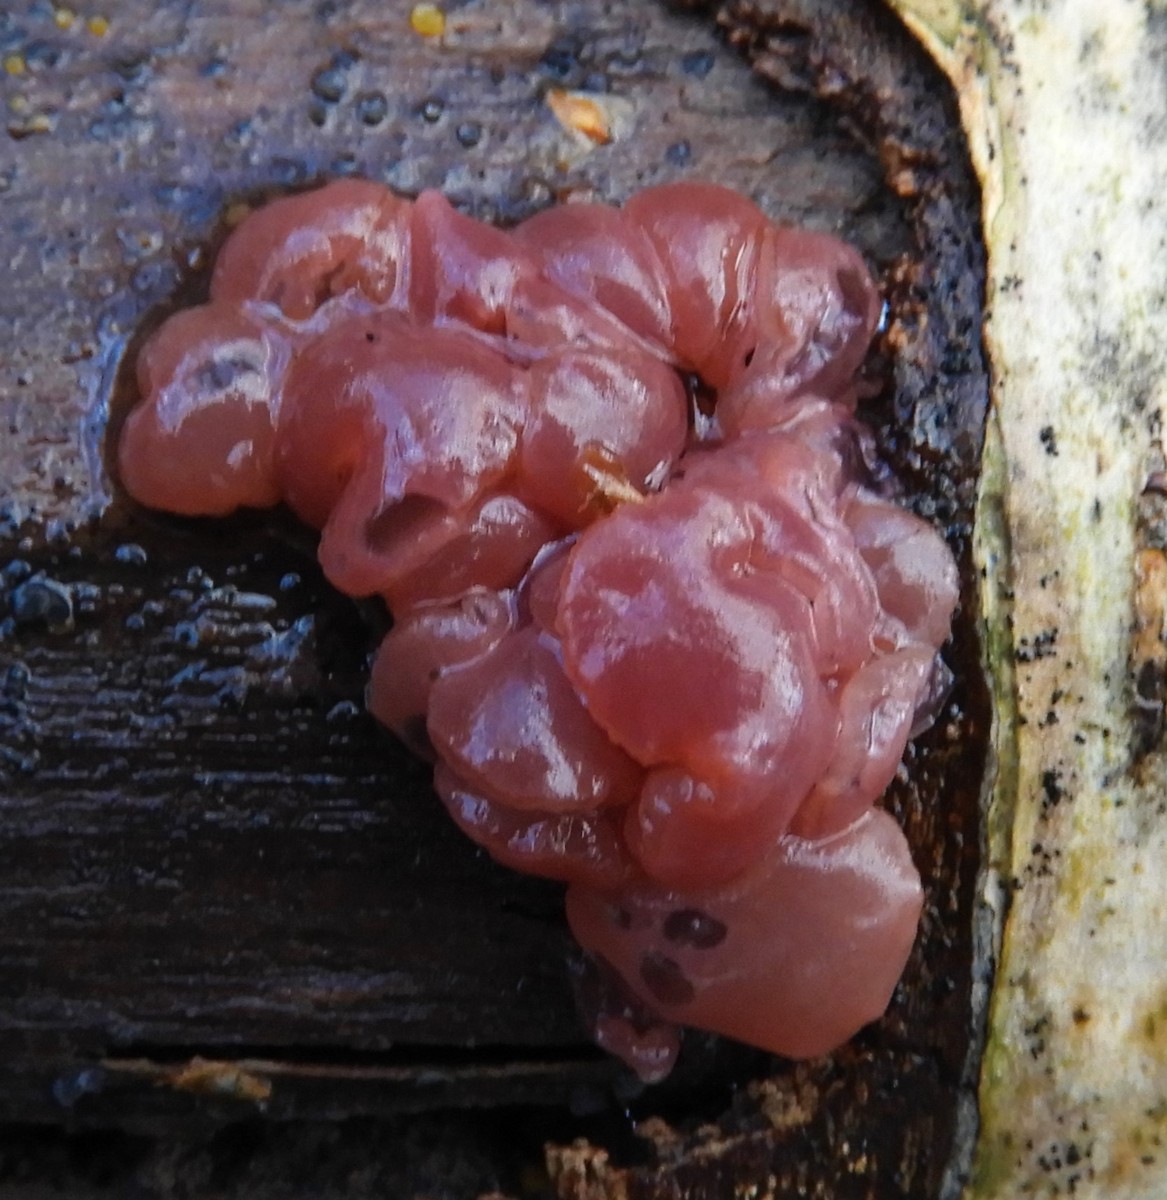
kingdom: Fungi
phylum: Ascomycota
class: Leotiomycetes
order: Helotiales
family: Gelatinodiscaceae
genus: Ascocoryne
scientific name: Ascocoryne sarcoides
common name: rødlilla sejskive
